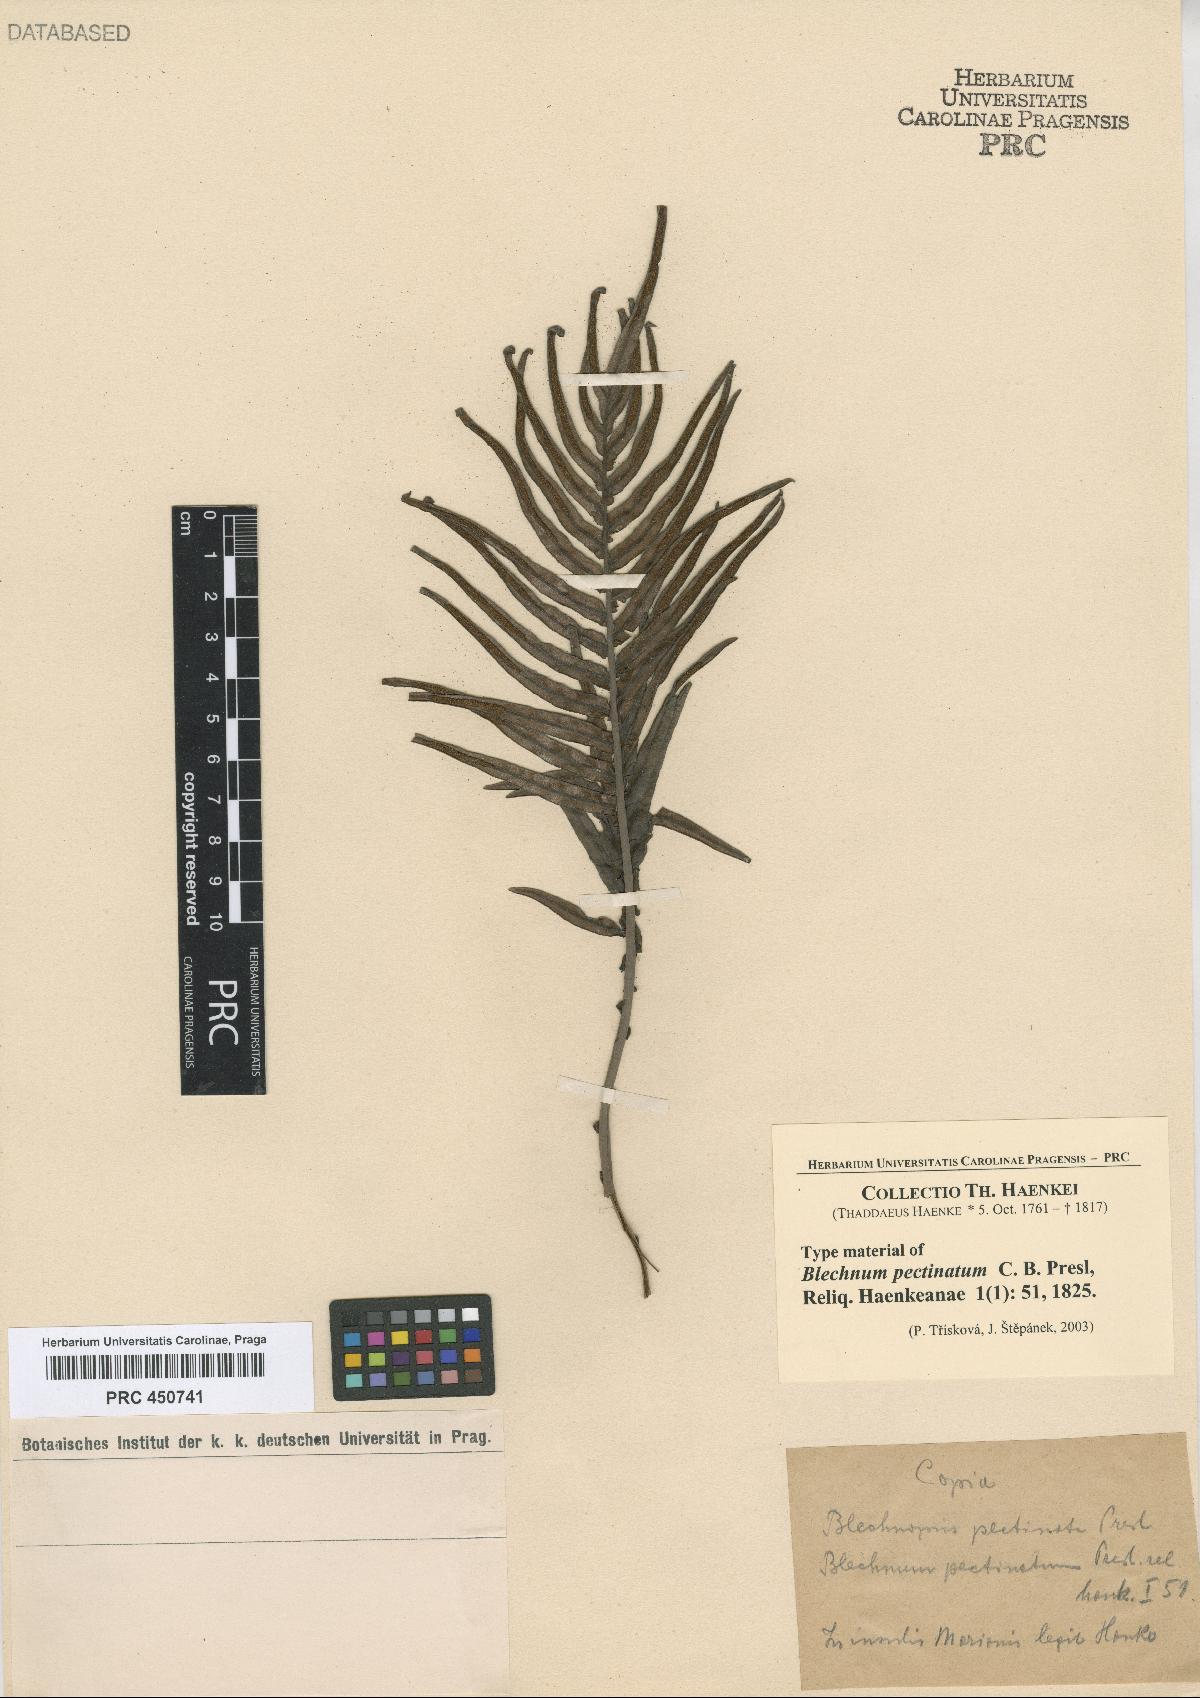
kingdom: Plantae
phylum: Tracheophyta
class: Polypodiopsida
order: Polypodiales
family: Blechnaceae
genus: Blechnopsis
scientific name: Blechnopsis orientalis
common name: Oriental blechnum
